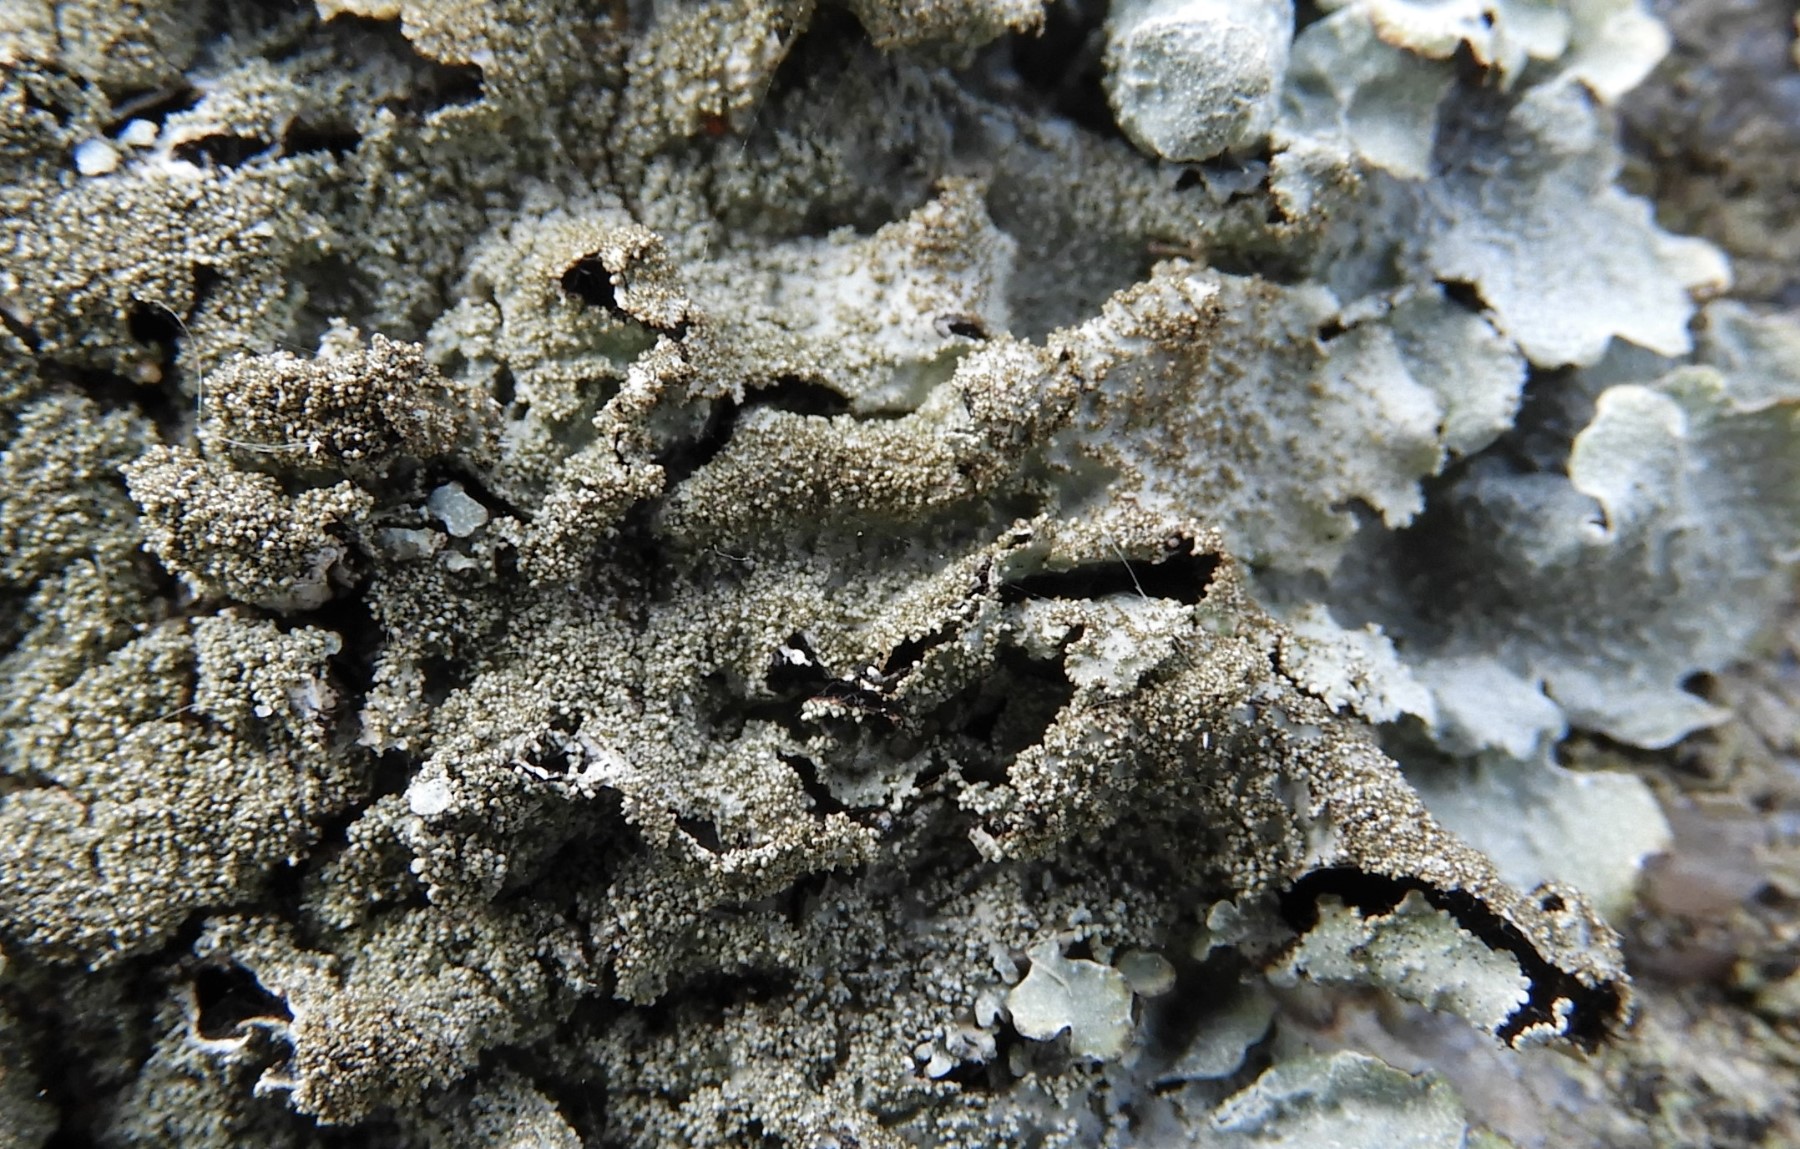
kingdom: Fungi
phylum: Ascomycota
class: Lecanoromycetes
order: Lecanorales
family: Parmeliaceae
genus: Parmelia
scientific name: Parmelia saxatilis
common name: farve-skållav
